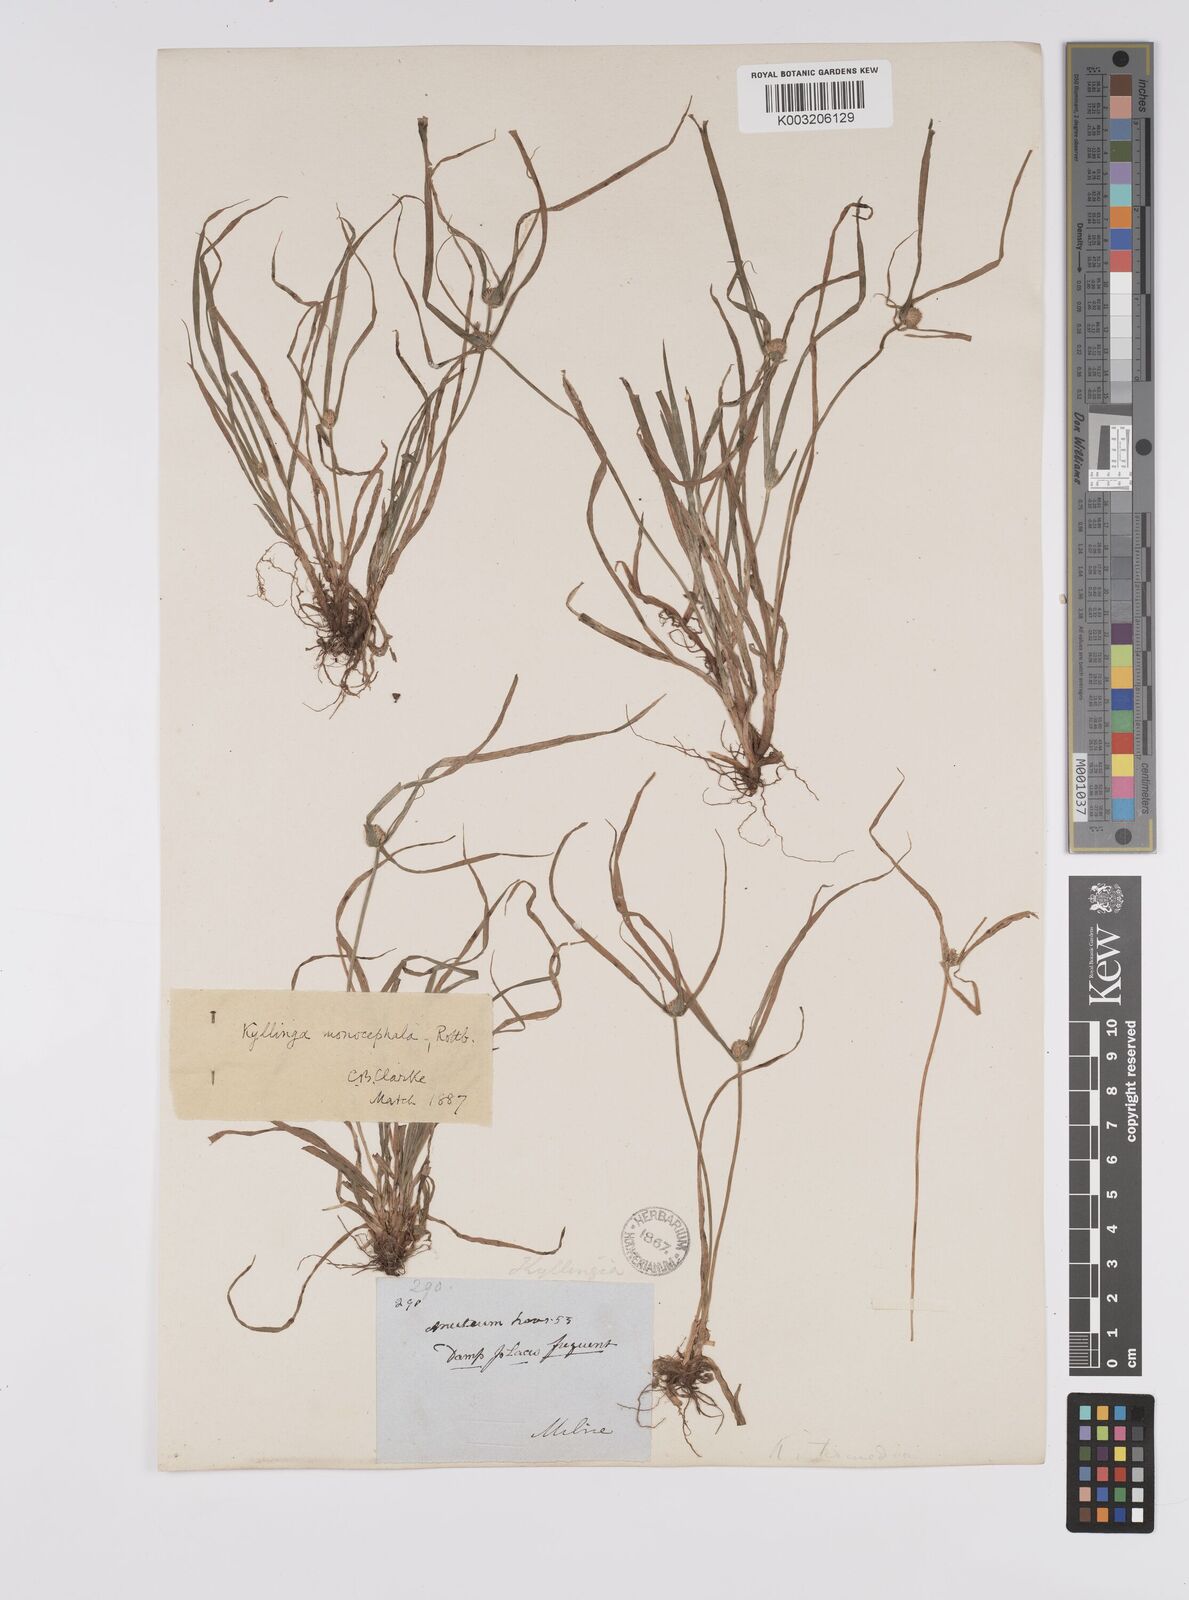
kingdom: Plantae
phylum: Tracheophyta
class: Liliopsida
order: Poales
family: Cyperaceae
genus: Cyperus
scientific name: Cyperus nemoralis
